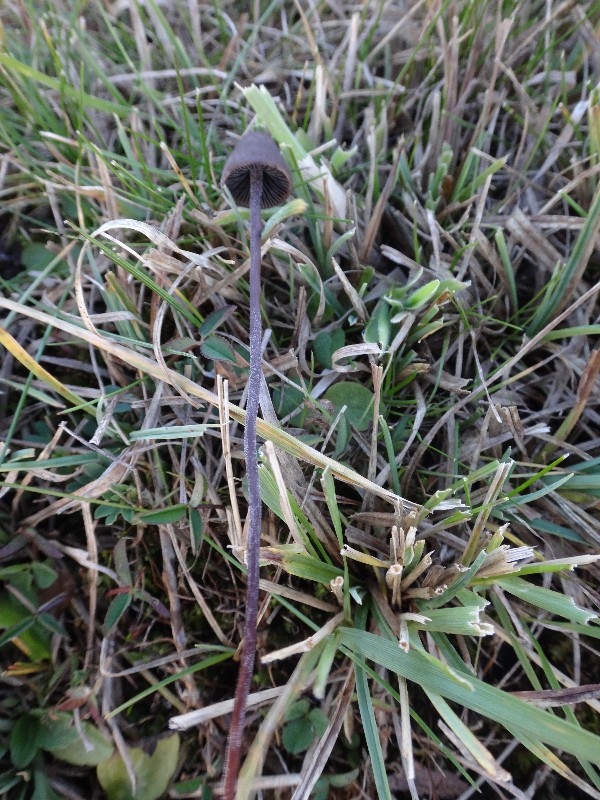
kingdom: Fungi
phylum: Basidiomycota
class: Agaricomycetes
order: Agaricales
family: Bolbitiaceae
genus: Panaeolus
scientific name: Panaeolus acuminatus
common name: høj glanshat
